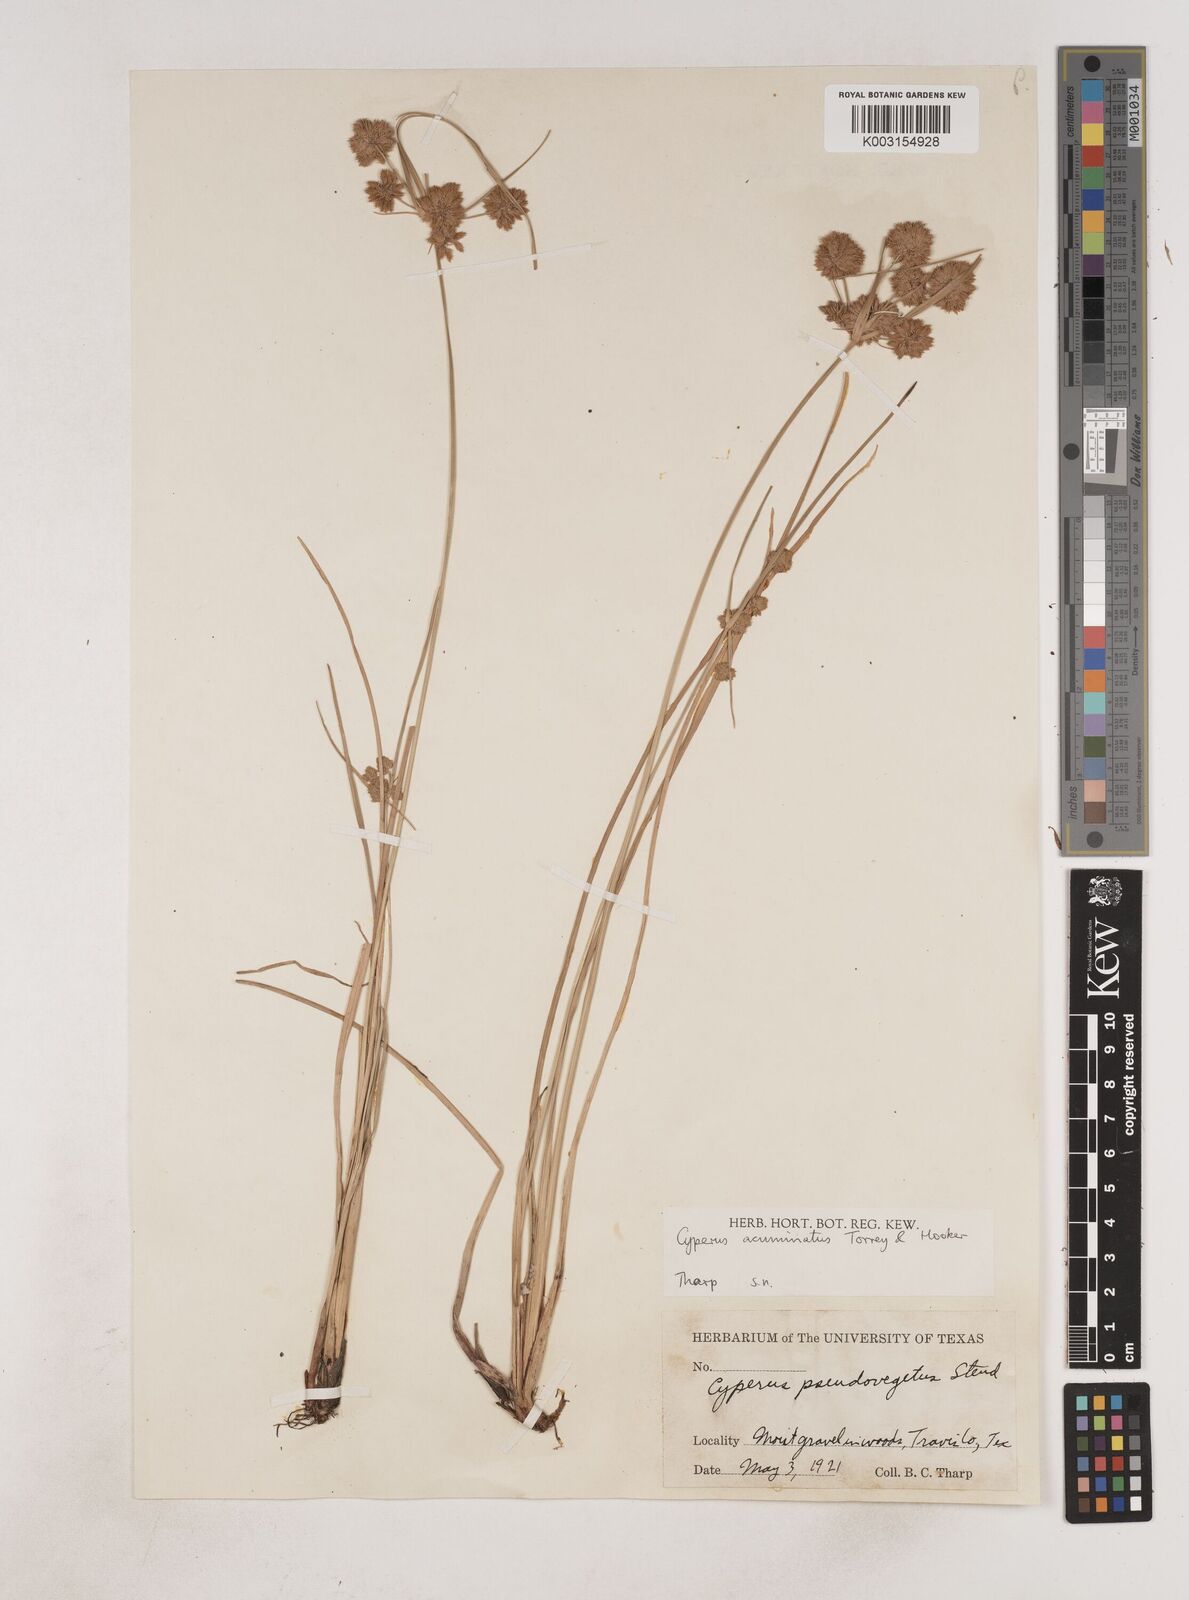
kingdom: Plantae
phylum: Tracheophyta
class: Liliopsida
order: Poales
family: Cyperaceae
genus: Cyperus
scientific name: Cyperus acuminatus
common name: Short-pointed cyperus
